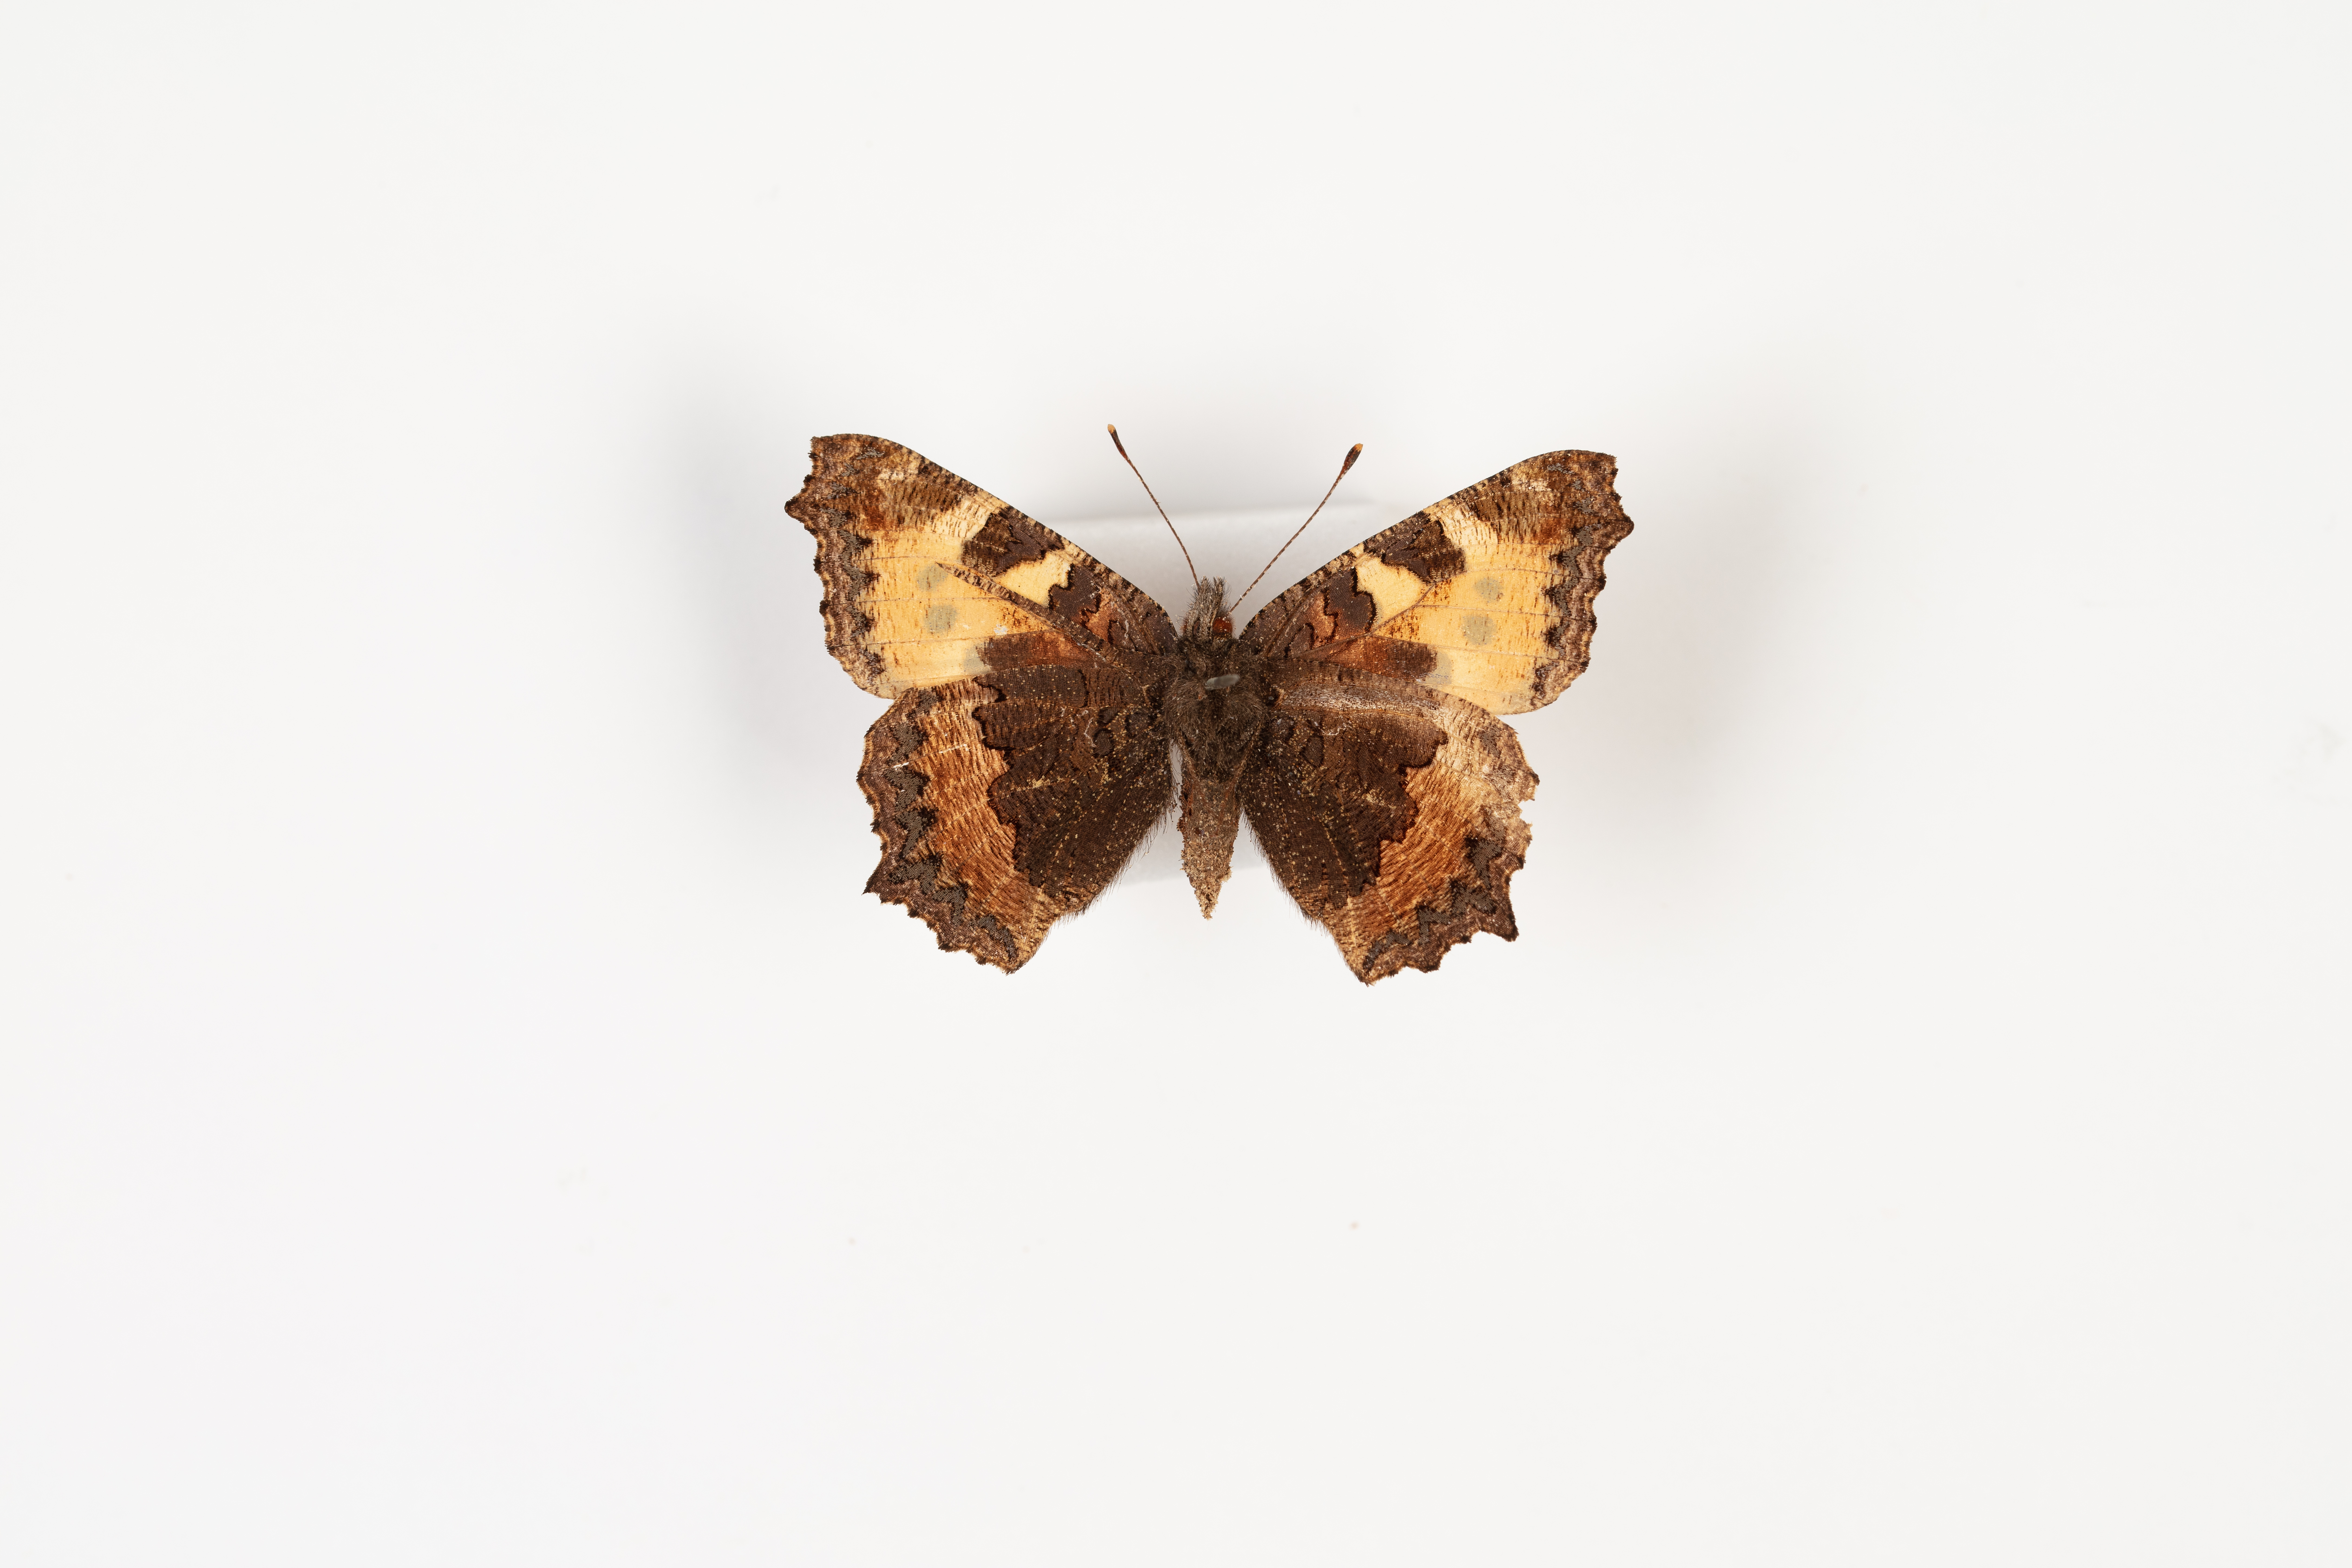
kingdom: Animalia
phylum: Arthropoda
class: Insecta
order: Lepidoptera
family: Nymphalidae
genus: Aglais
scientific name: Aglais urticae
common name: Small tortoiseshell
